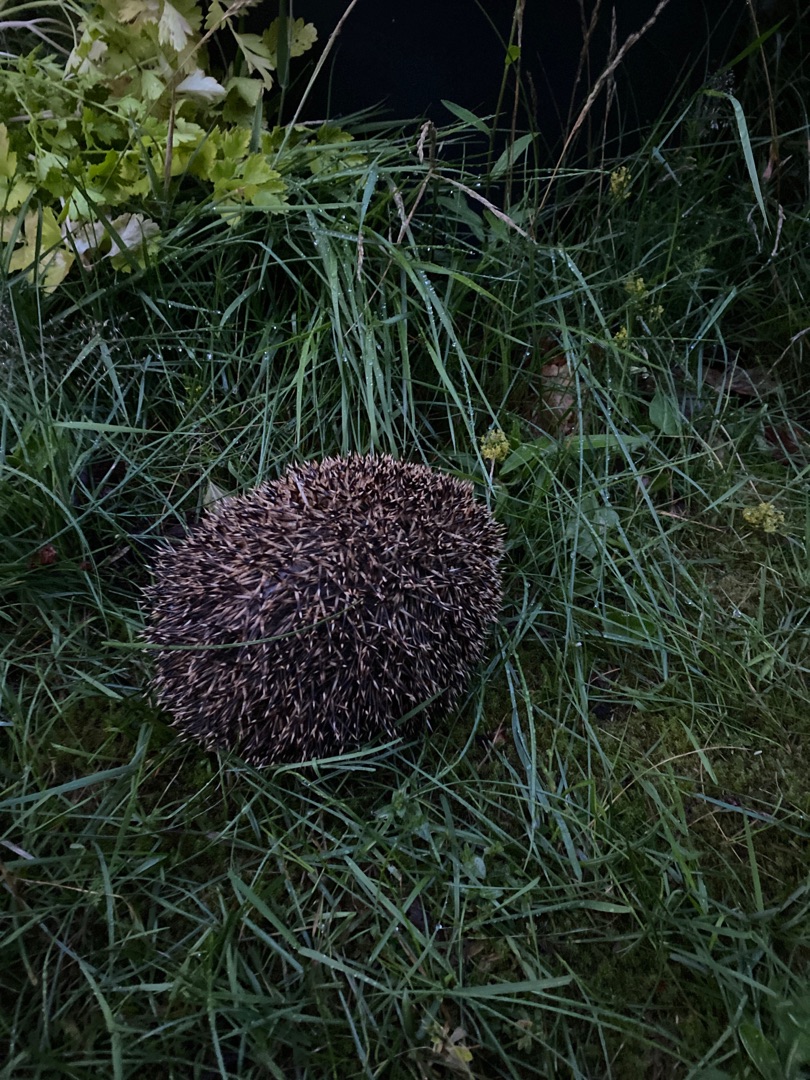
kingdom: Animalia
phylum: Chordata
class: Mammalia
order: Erinaceomorpha
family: Erinaceidae
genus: Erinaceus
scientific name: Erinaceus europaeus
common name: Pindsvin
